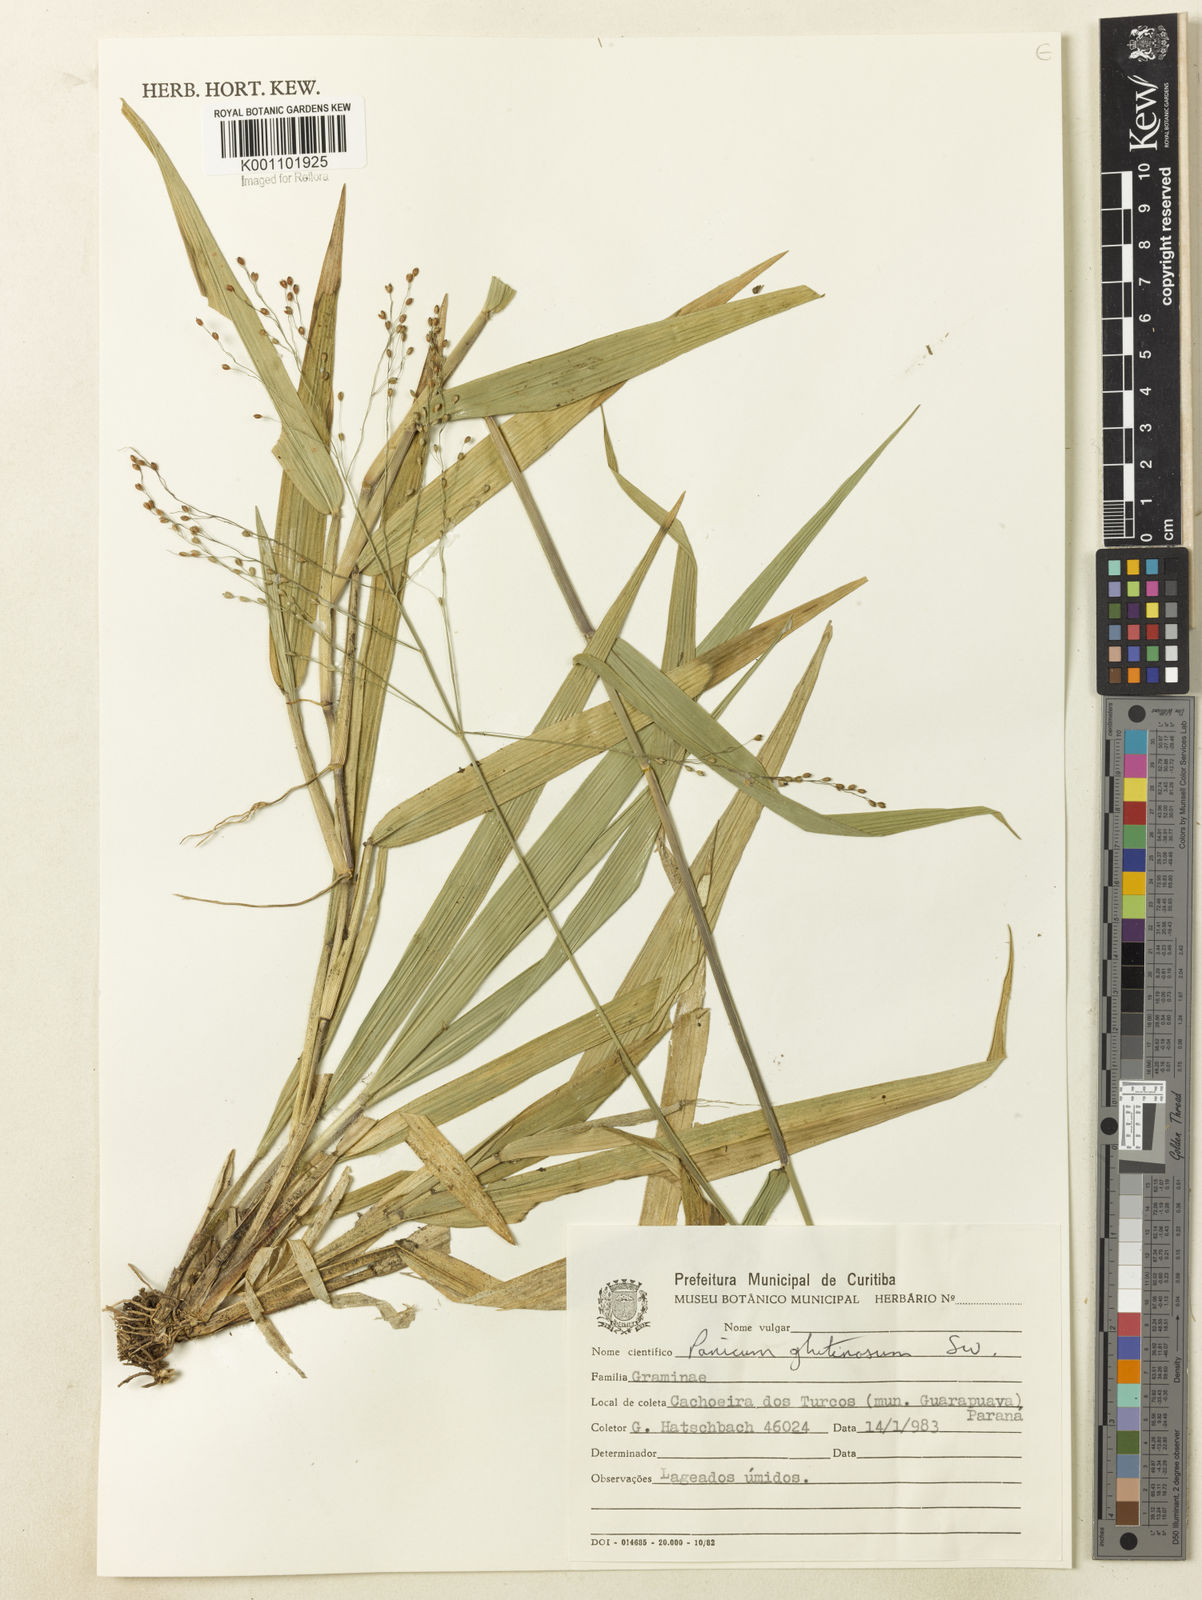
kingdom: Plantae
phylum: Tracheophyta
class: Liliopsida
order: Poales
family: Poaceae
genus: Homolepis
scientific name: Homolepis glutinosa
